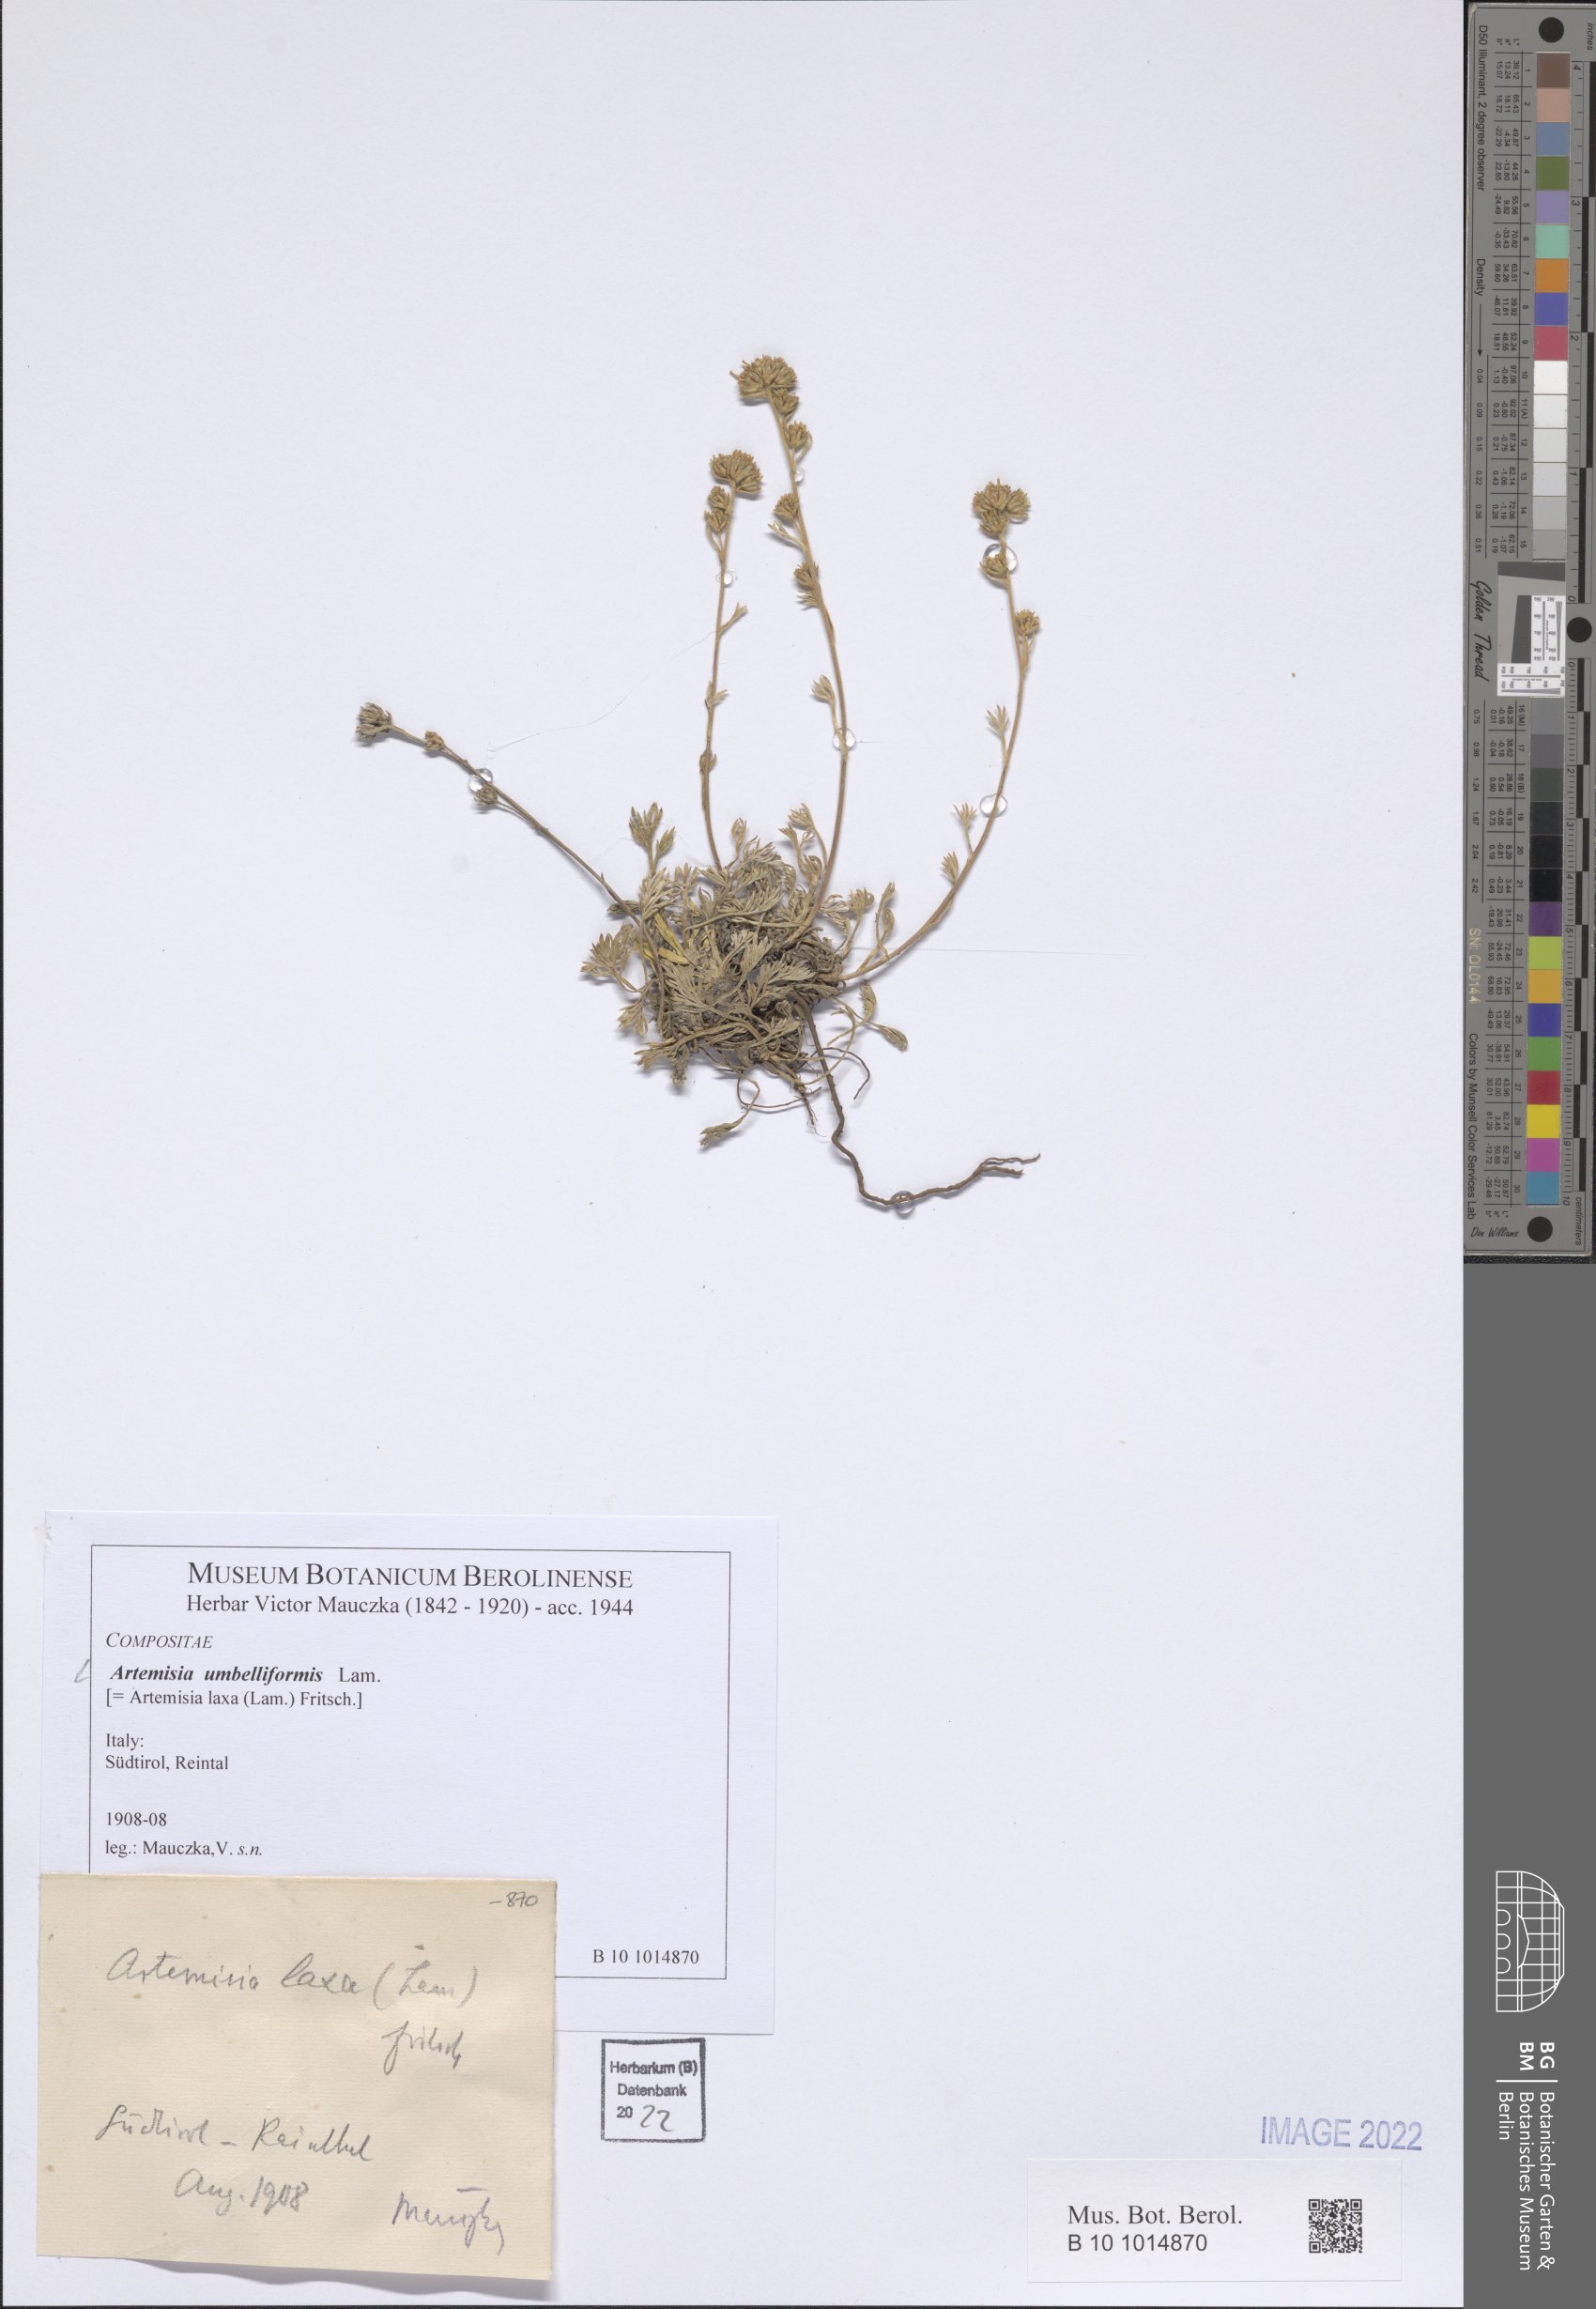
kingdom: Plantae
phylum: Tracheophyta
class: Magnoliopsida
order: Asterales
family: Asteraceae
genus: Artemisia
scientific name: Artemisia mutellina
